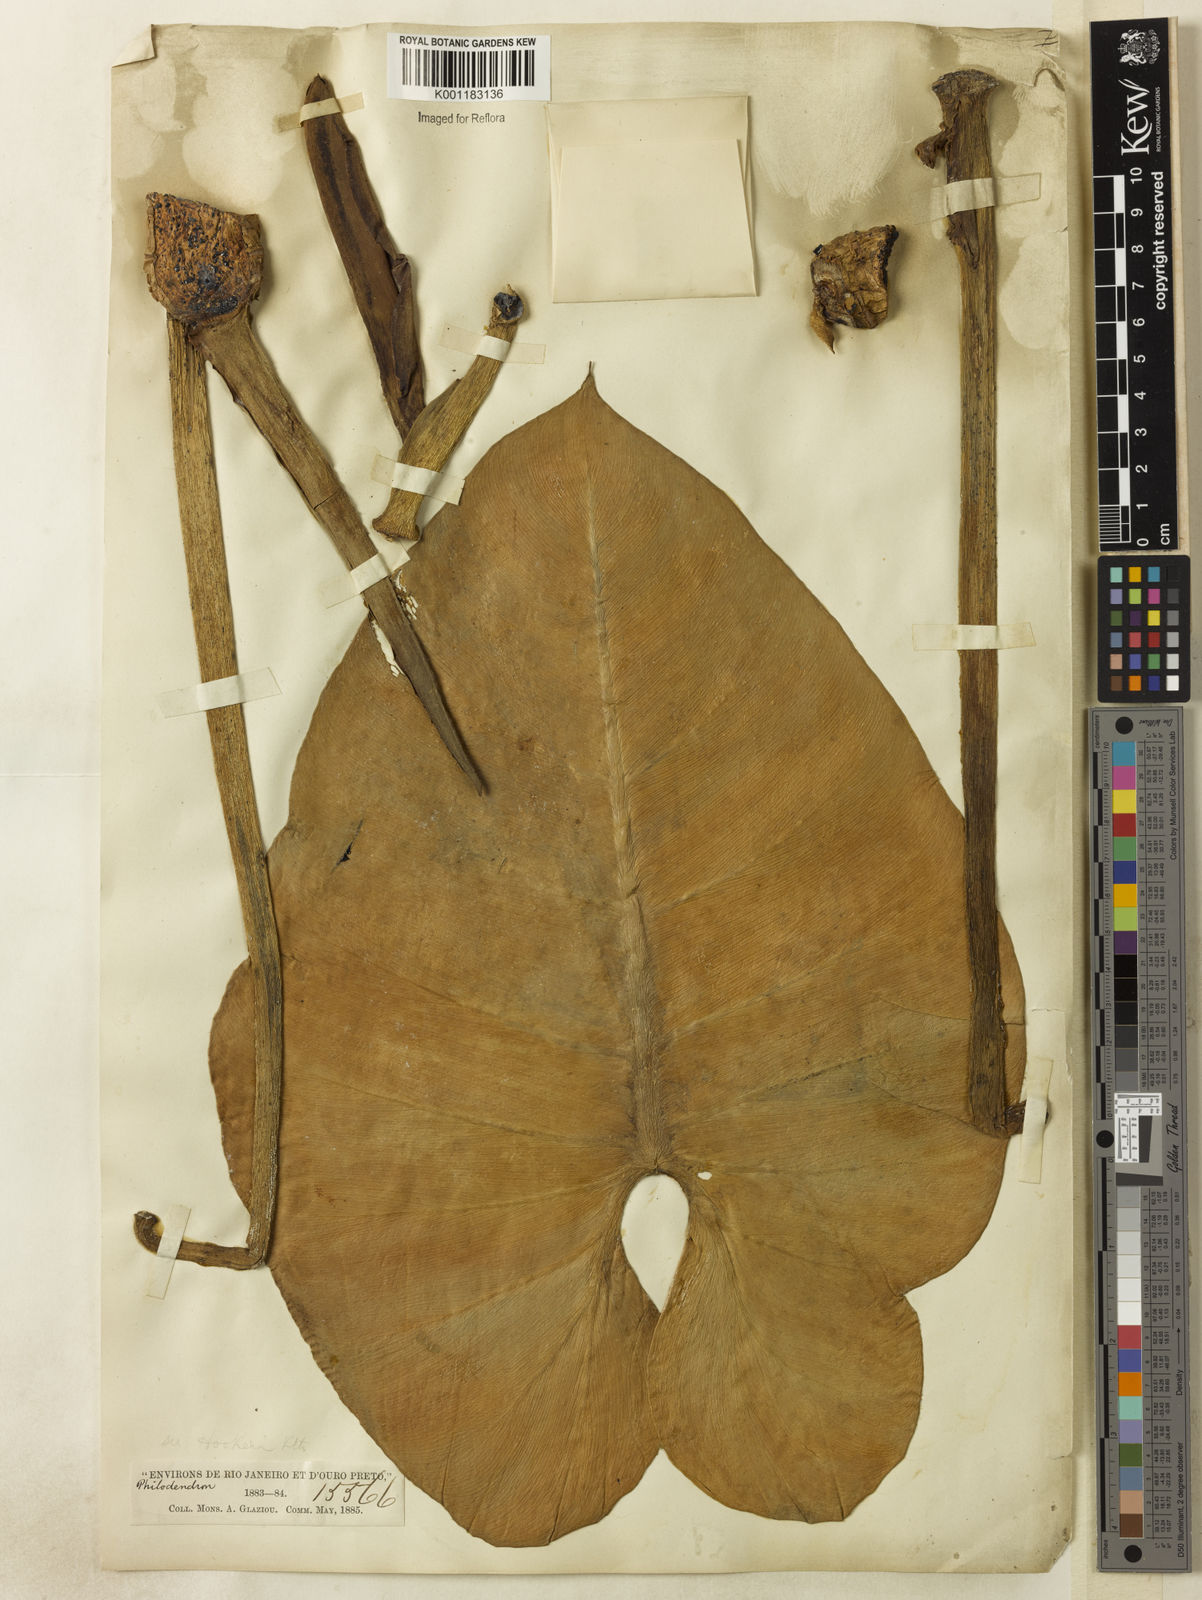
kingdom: Plantae
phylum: Tracheophyta
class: Liliopsida
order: Alismatales
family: Araceae
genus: Philodendron
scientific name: Philodendron cordatum
